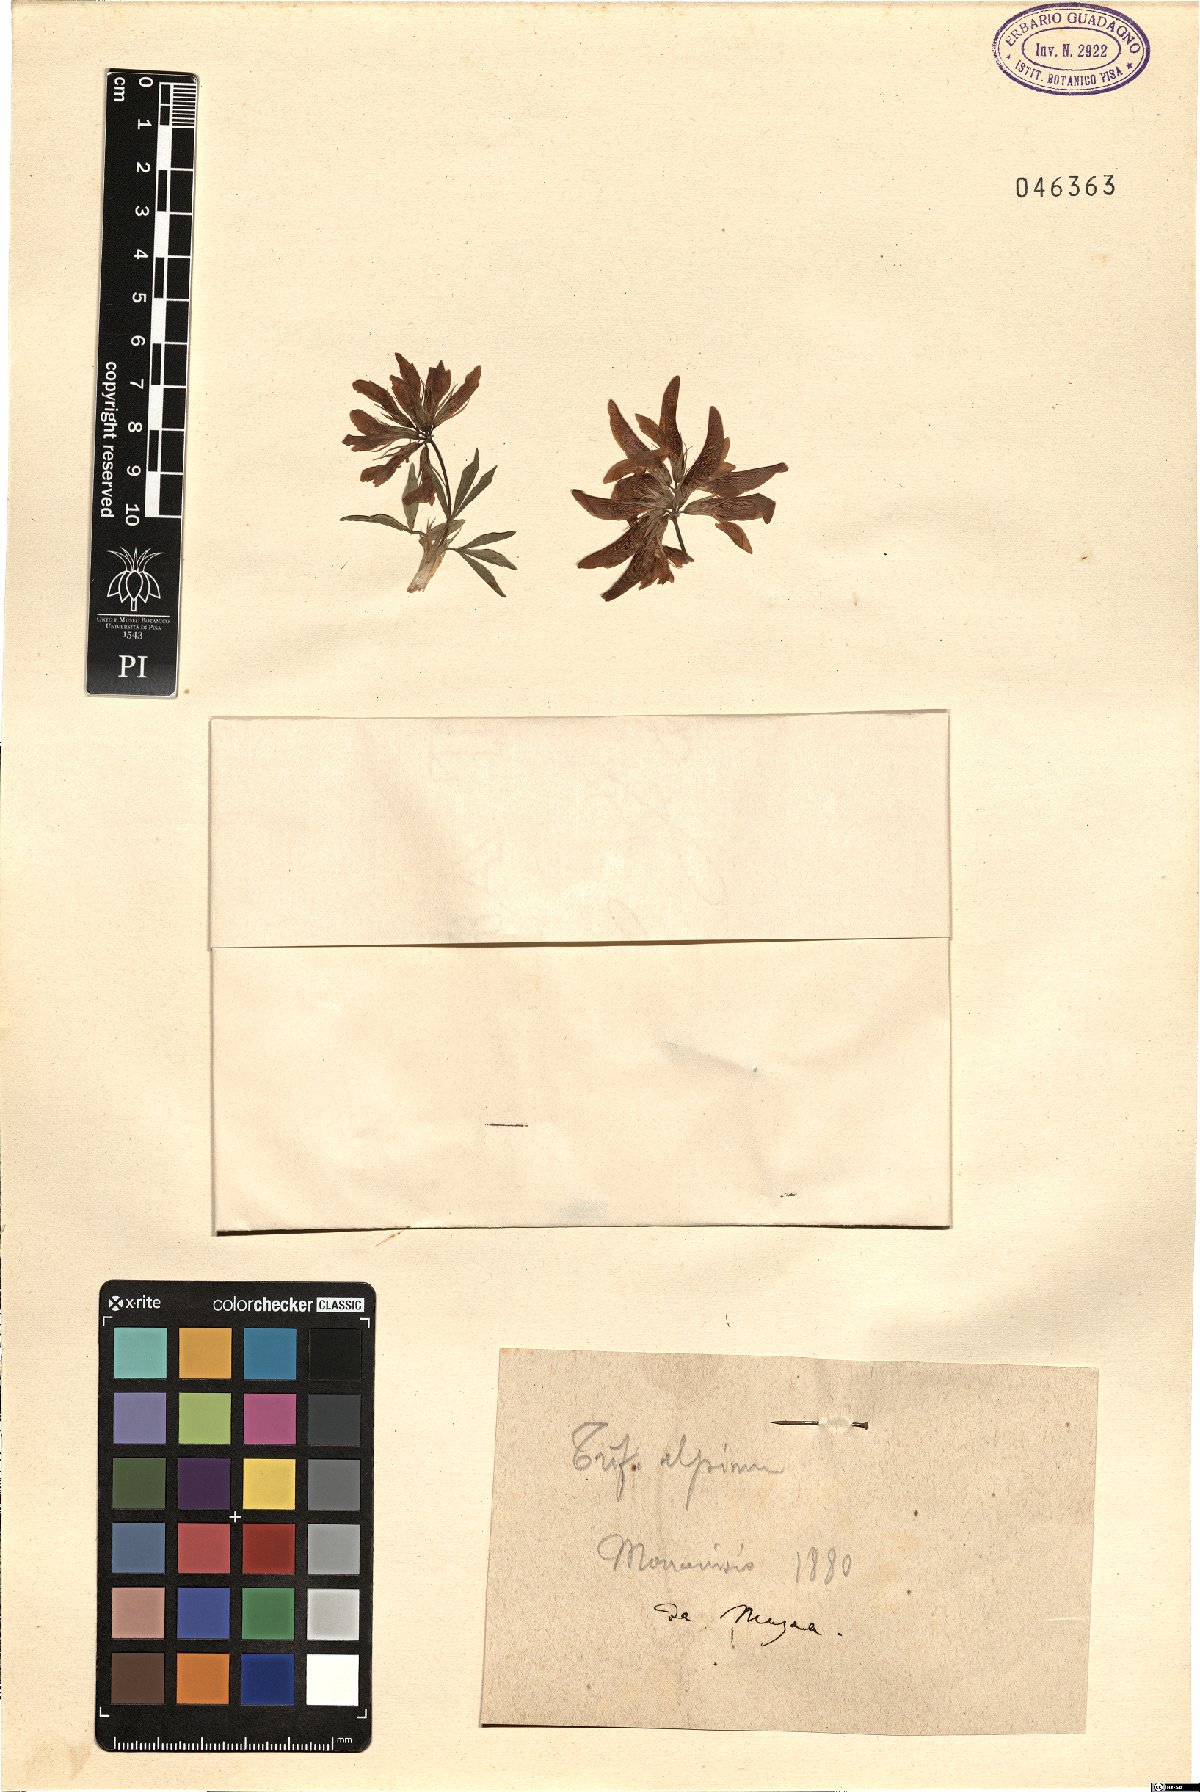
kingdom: Plantae
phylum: Tracheophyta
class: Magnoliopsida
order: Fabales
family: Fabaceae
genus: Trifolium
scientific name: Trifolium alpinum
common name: Alpine clover
